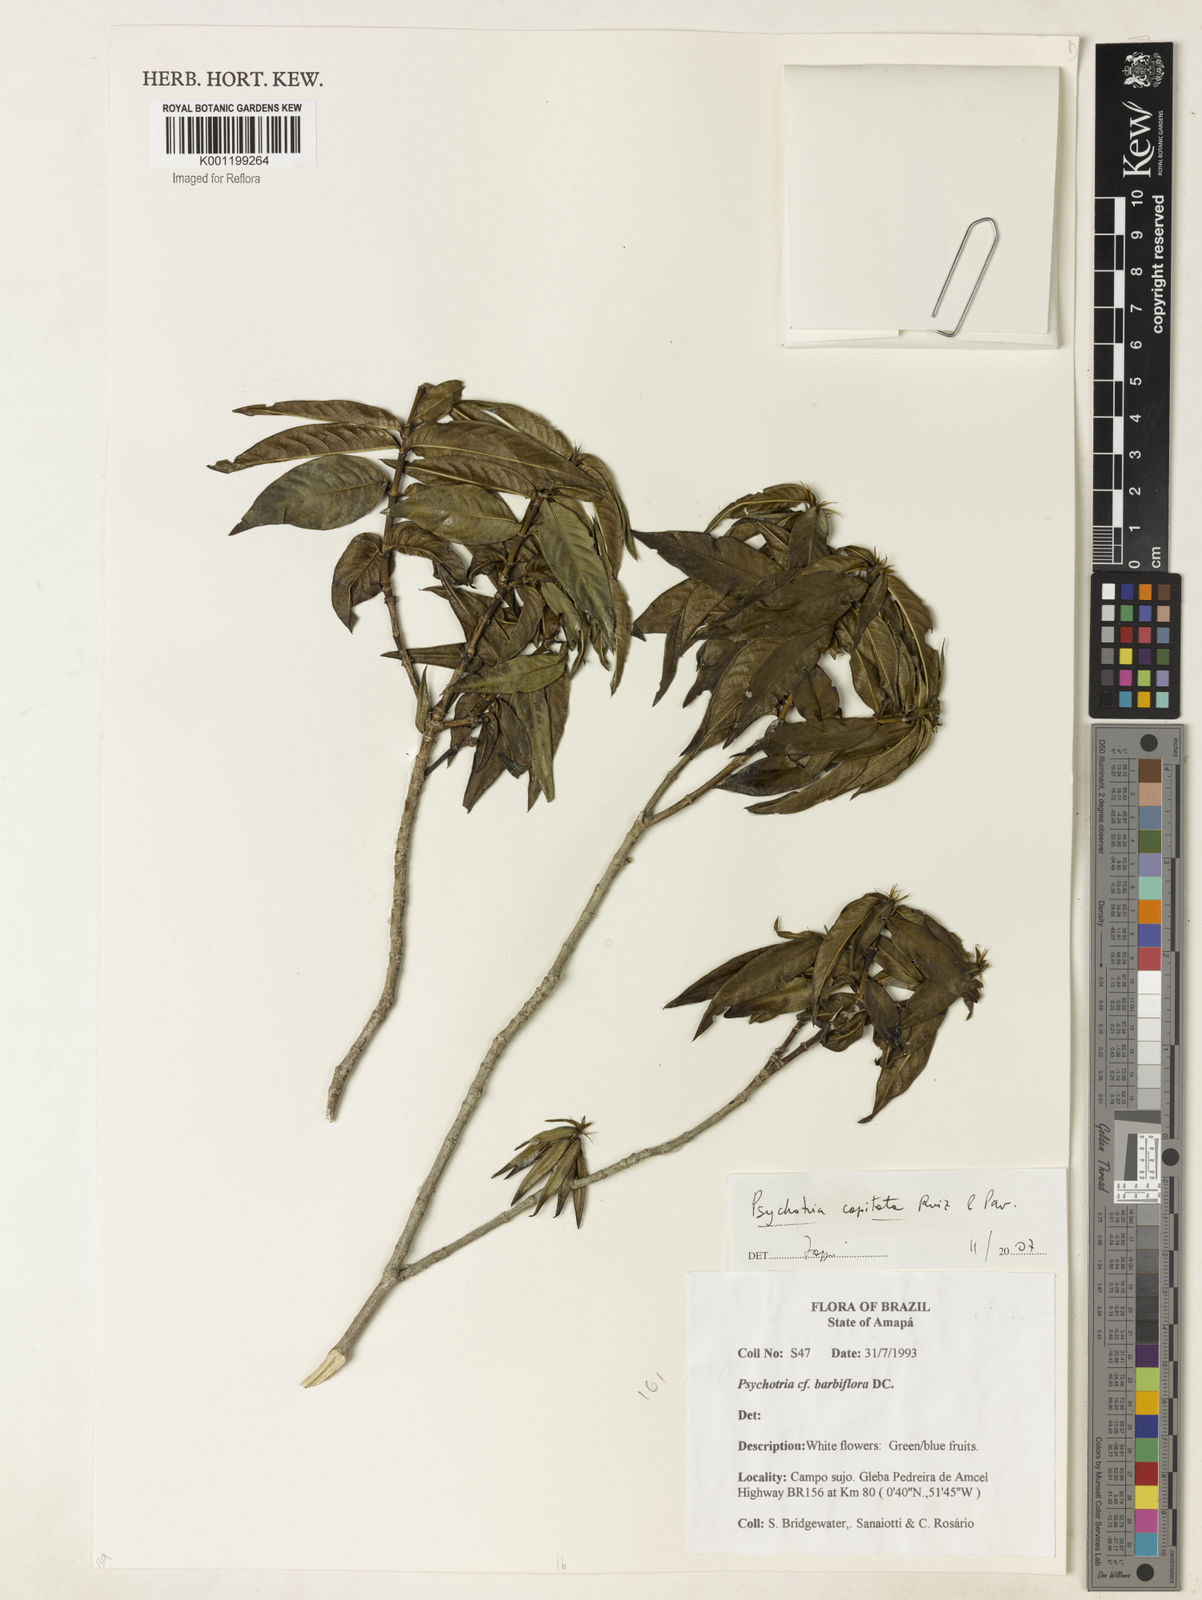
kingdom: Plantae
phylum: Tracheophyta
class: Magnoliopsida
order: Gentianales
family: Rubiaceae
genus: Palicourea
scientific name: Palicourea violacea
